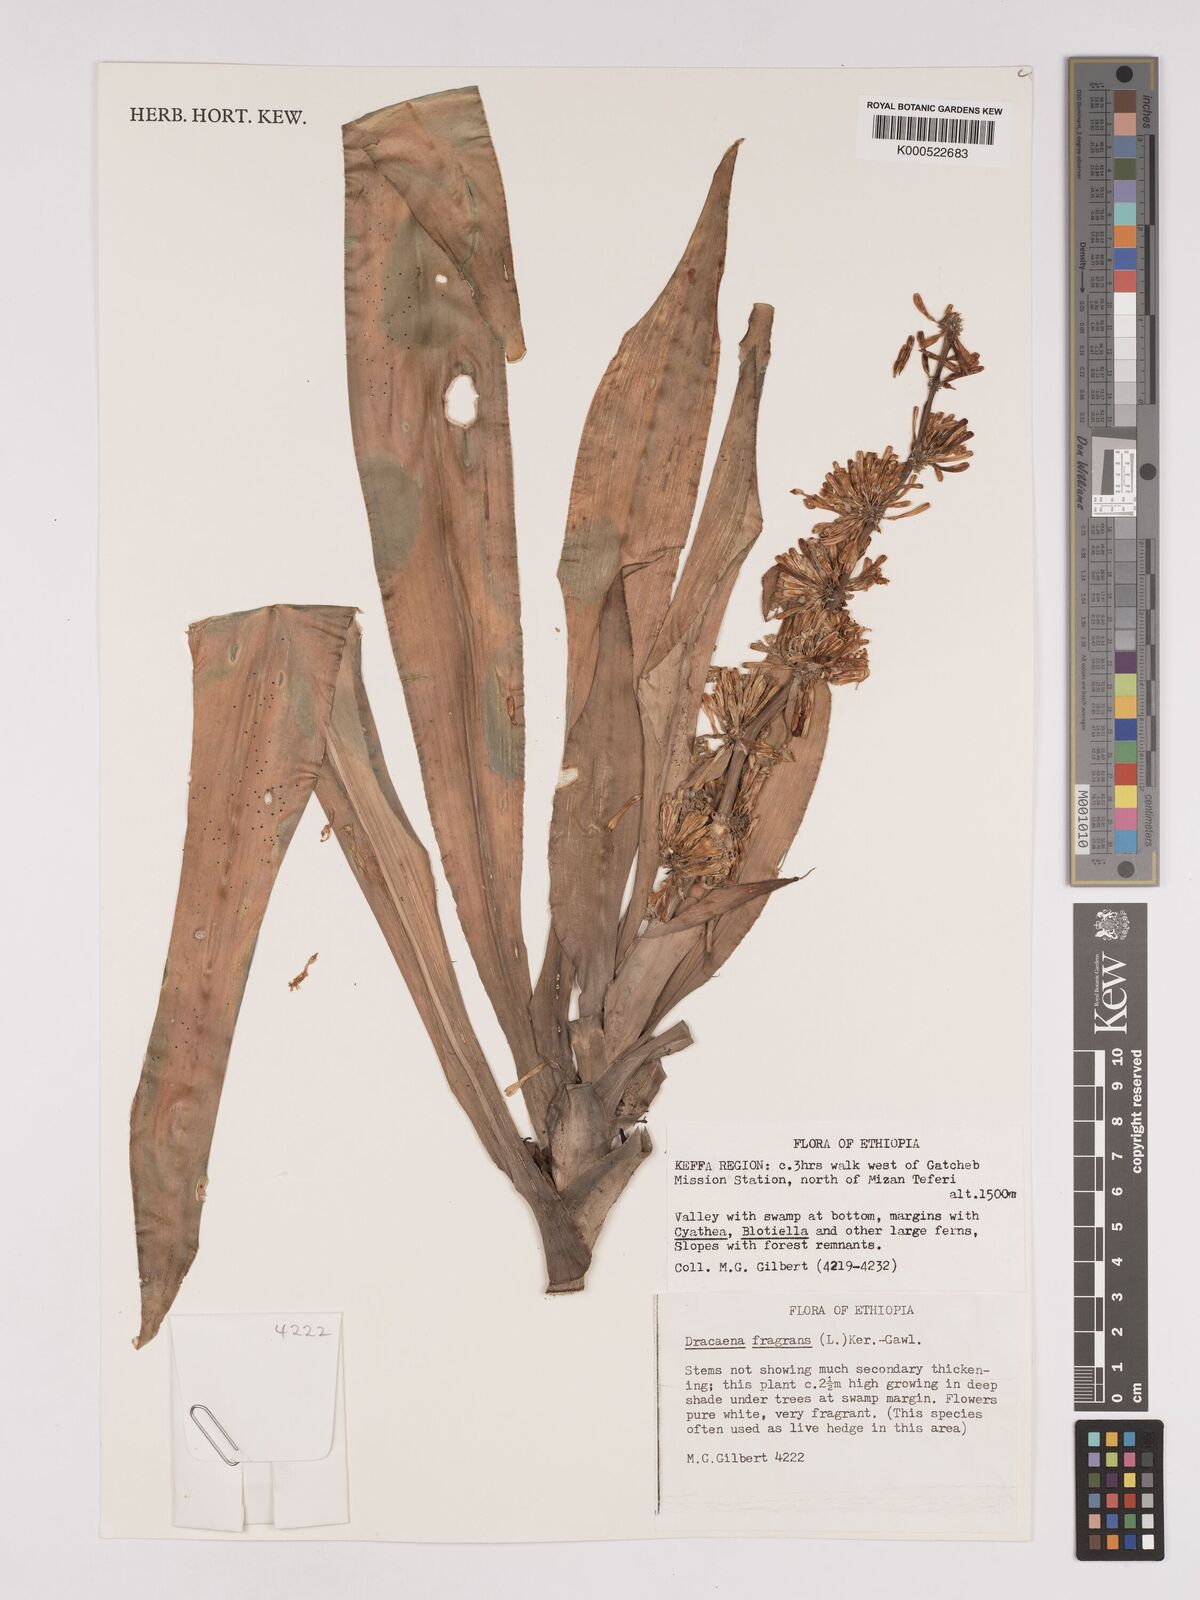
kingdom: Plantae
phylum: Tracheophyta
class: Liliopsida
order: Asparagales
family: Asparagaceae
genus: Dracaena
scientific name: Dracaena fragrans
